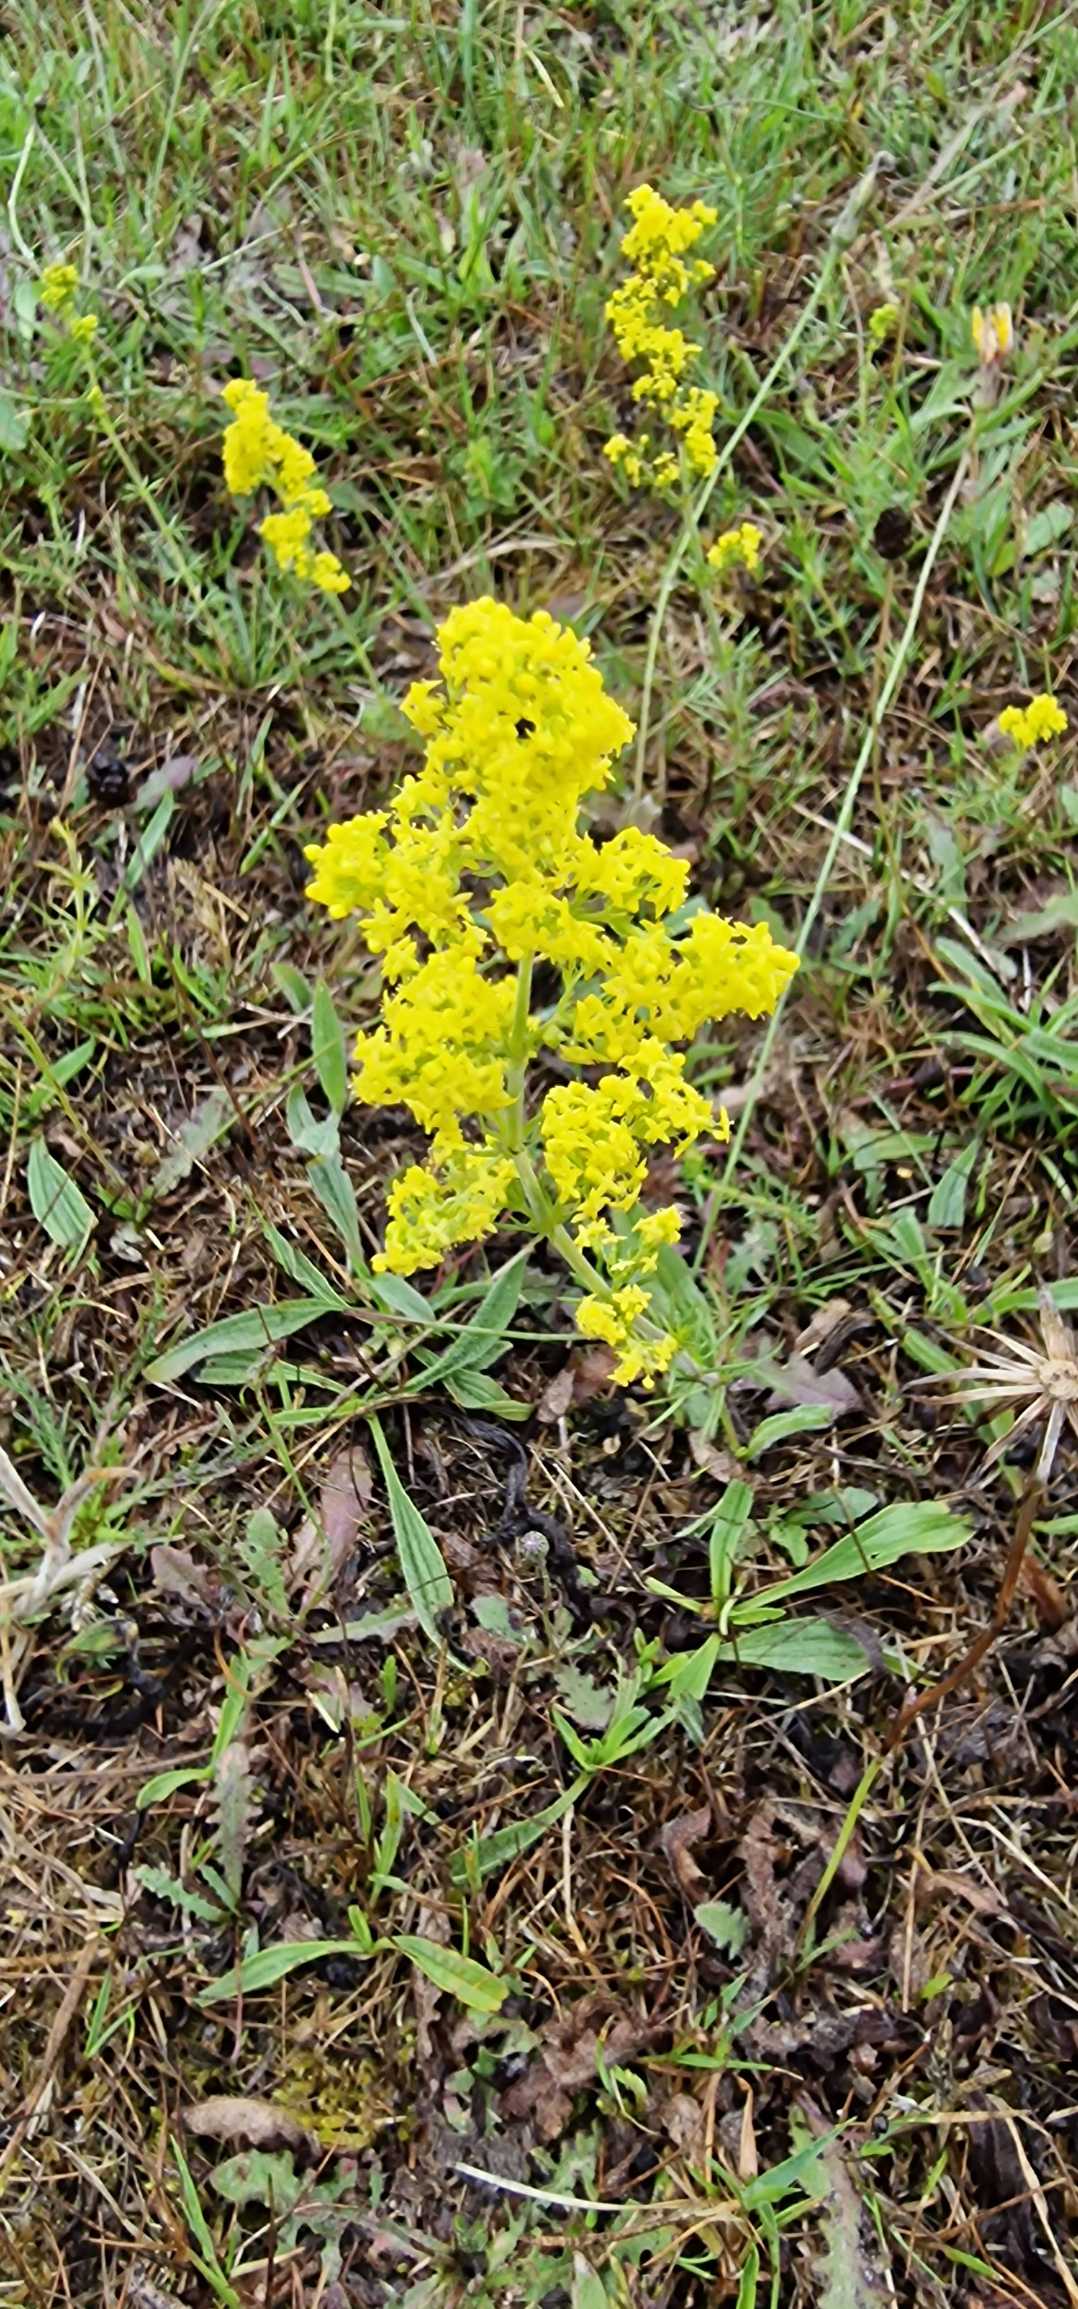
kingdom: Plantae
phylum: Tracheophyta
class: Magnoliopsida
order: Gentianales
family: Rubiaceae
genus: Galium
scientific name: Galium verum
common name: Gul snerre
